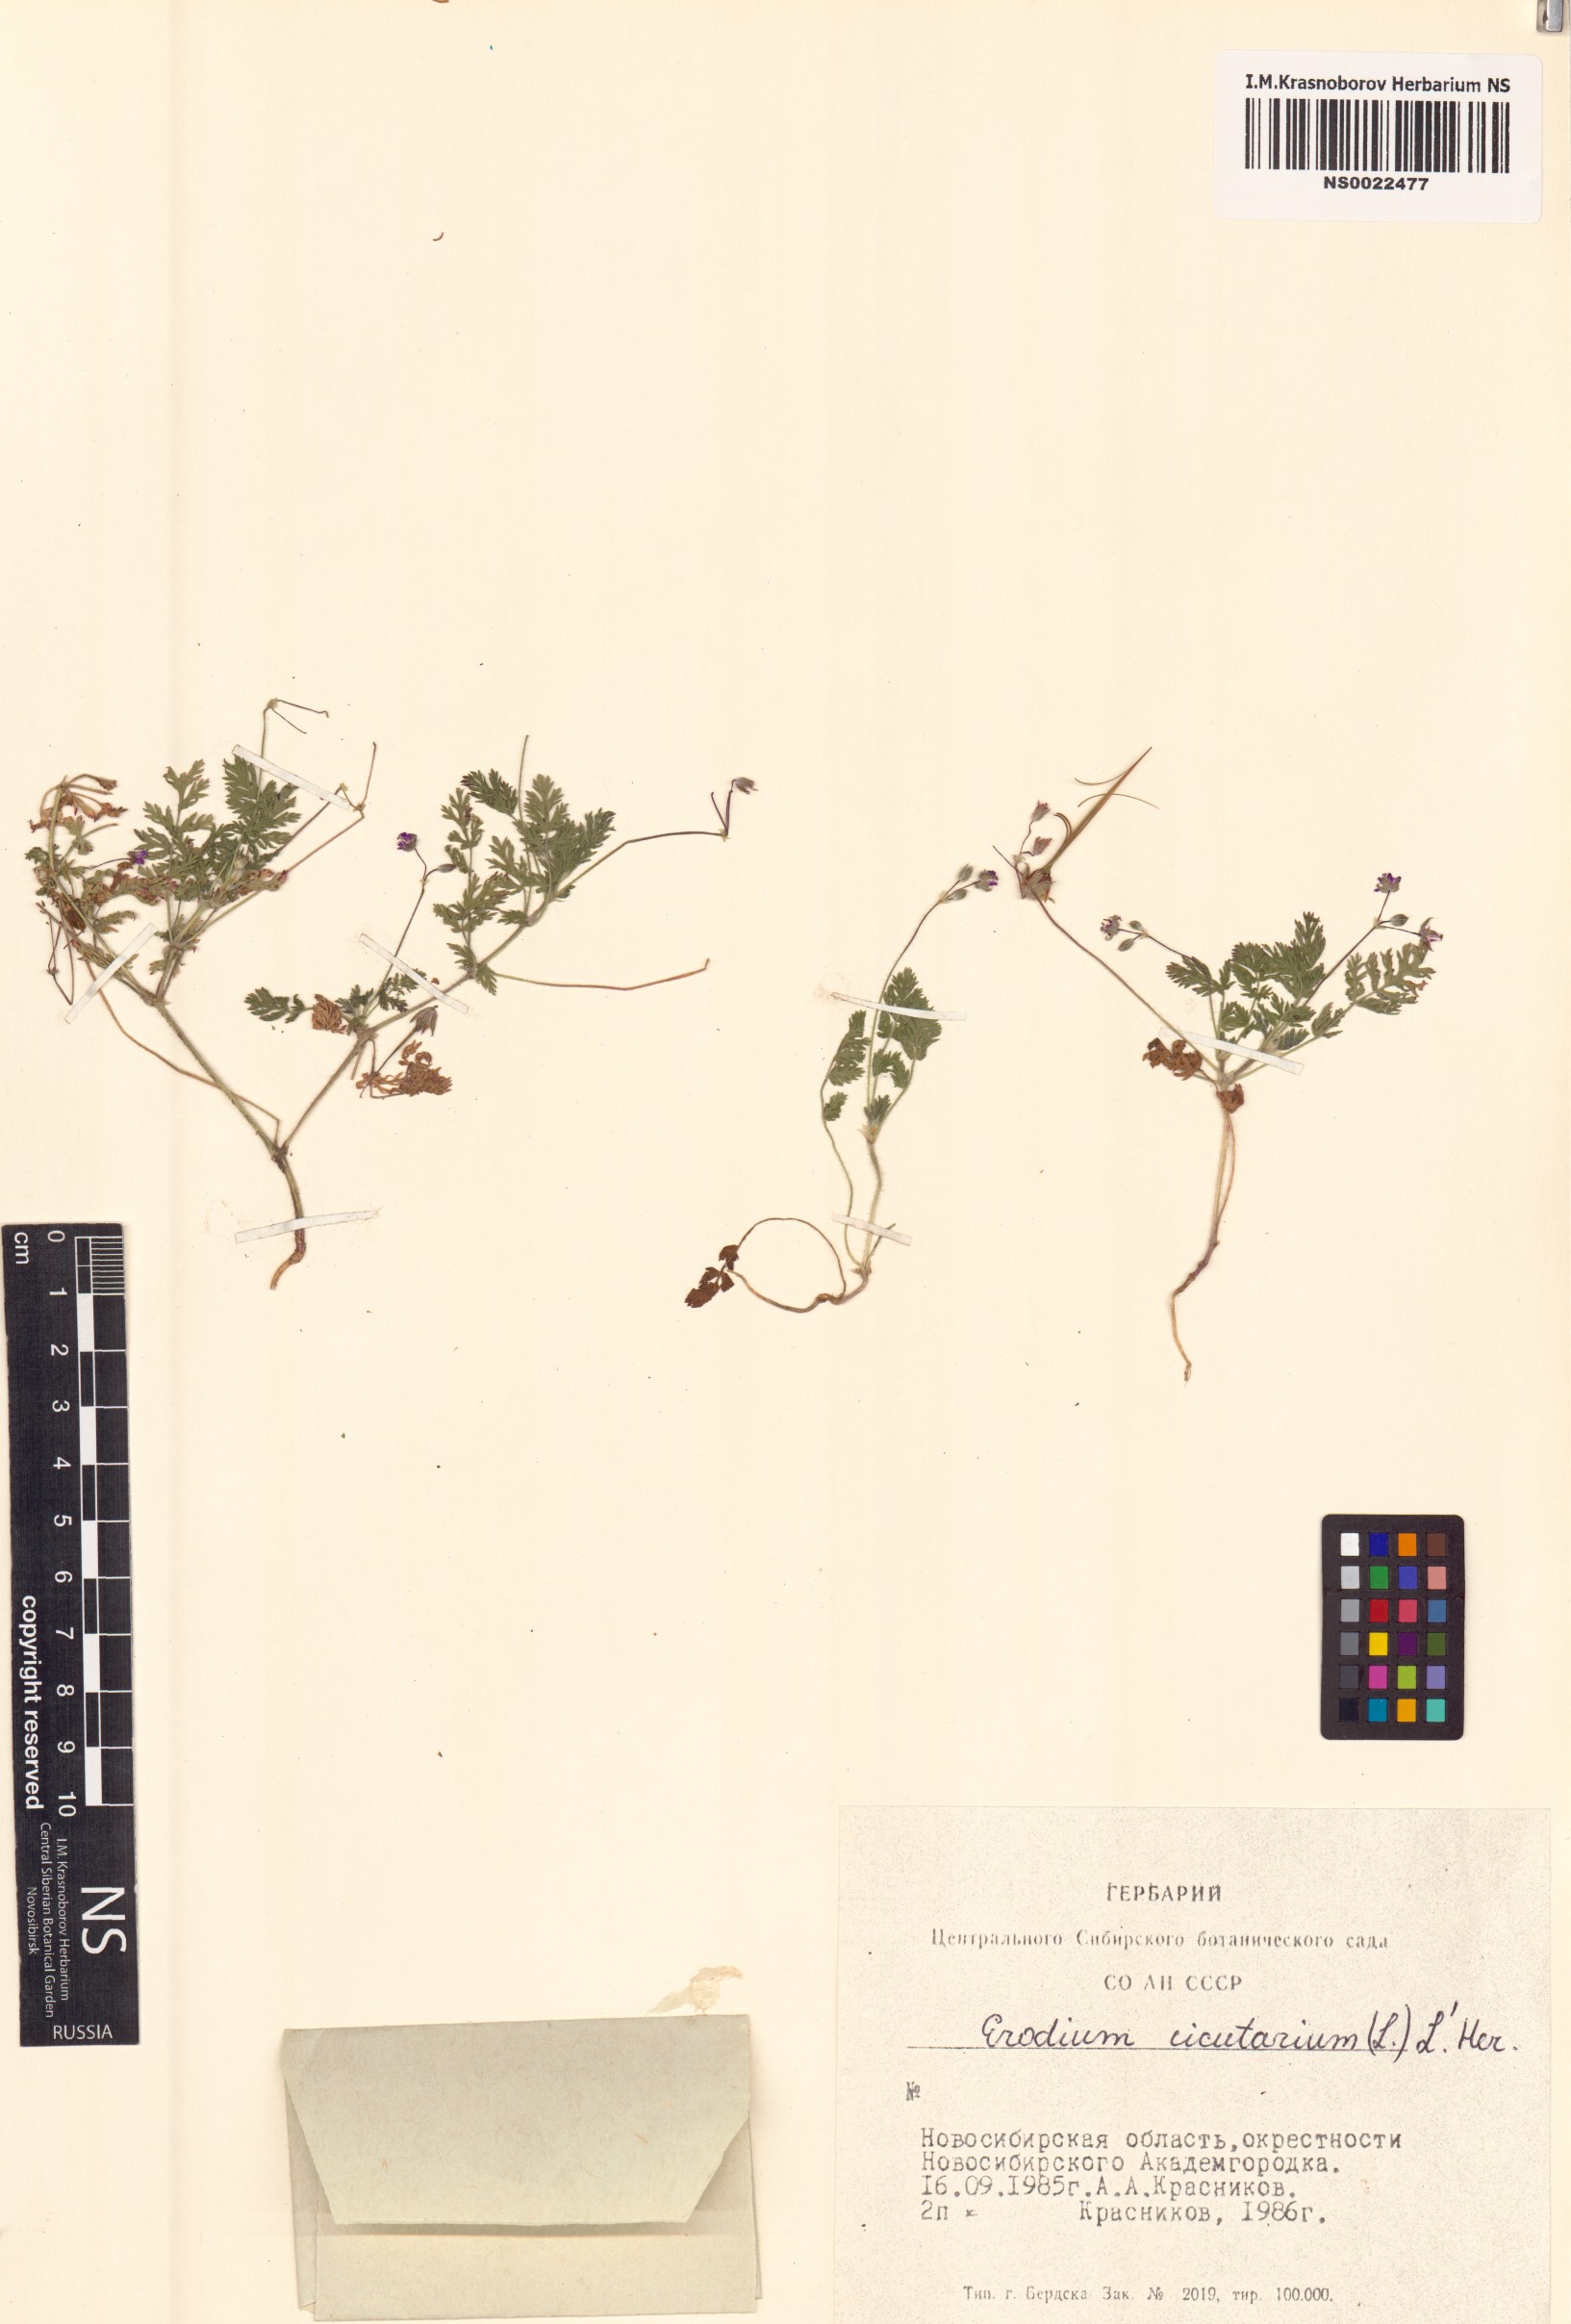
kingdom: Plantae
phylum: Tracheophyta
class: Magnoliopsida
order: Geraniales
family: Geraniaceae
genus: Erodium
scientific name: Erodium cicutarium
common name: Common stork's-bill
